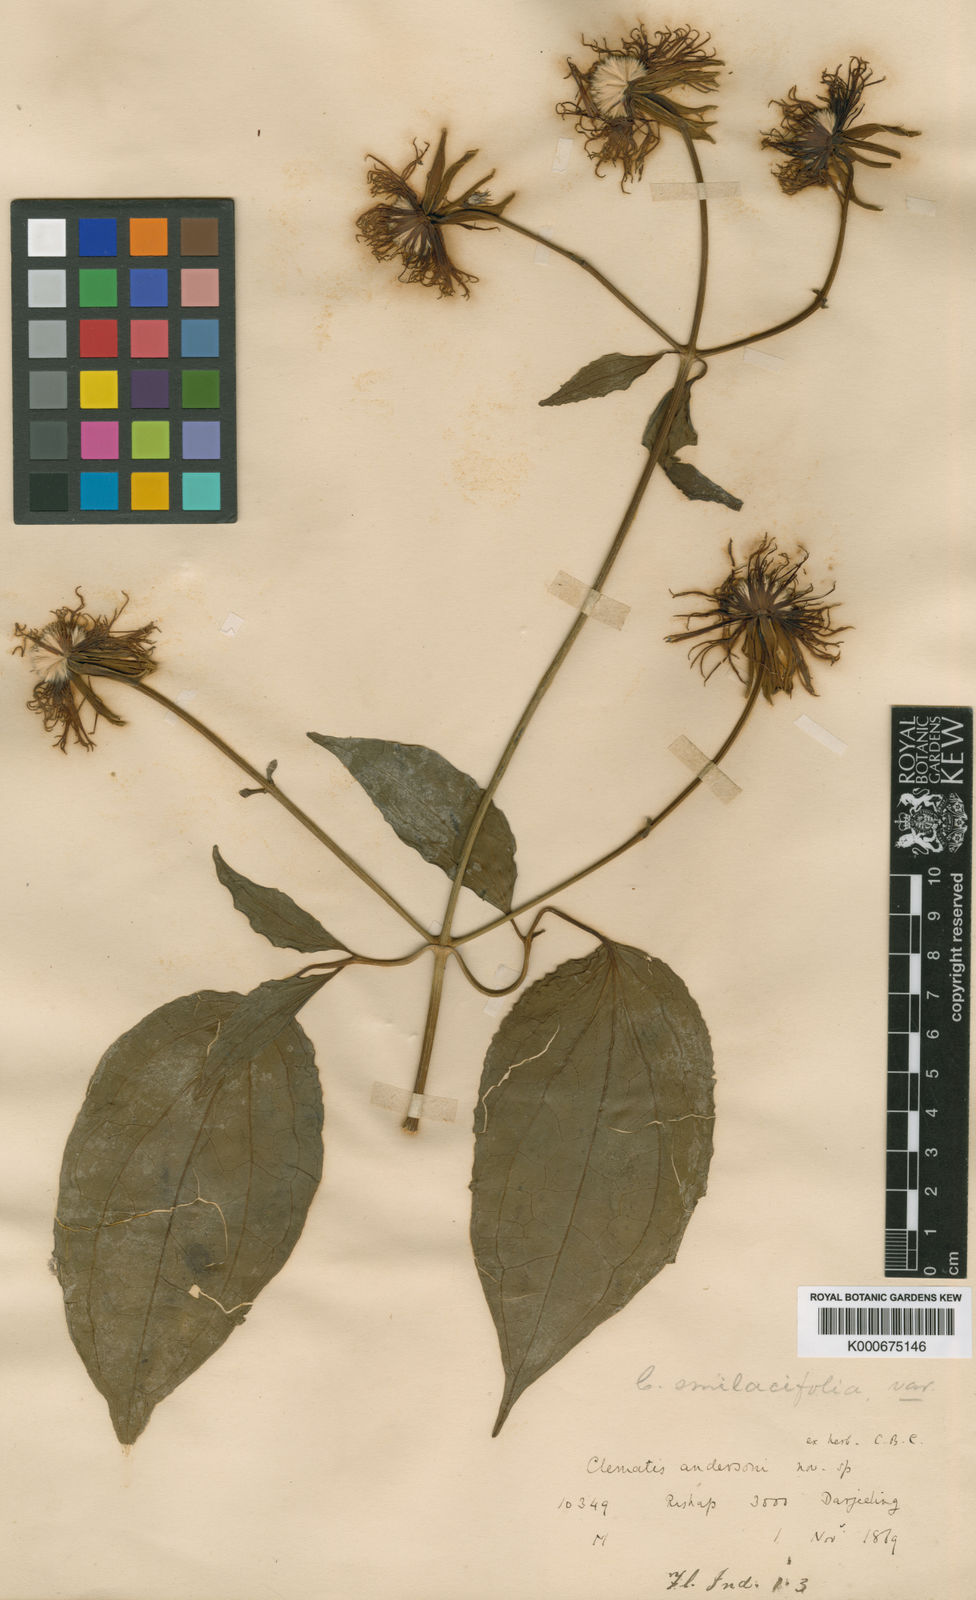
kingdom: Plantae
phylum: Tracheophyta
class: Magnoliopsida
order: Ranunculales
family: Ranunculaceae
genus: Clematis
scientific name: Clematis smilacifolia
